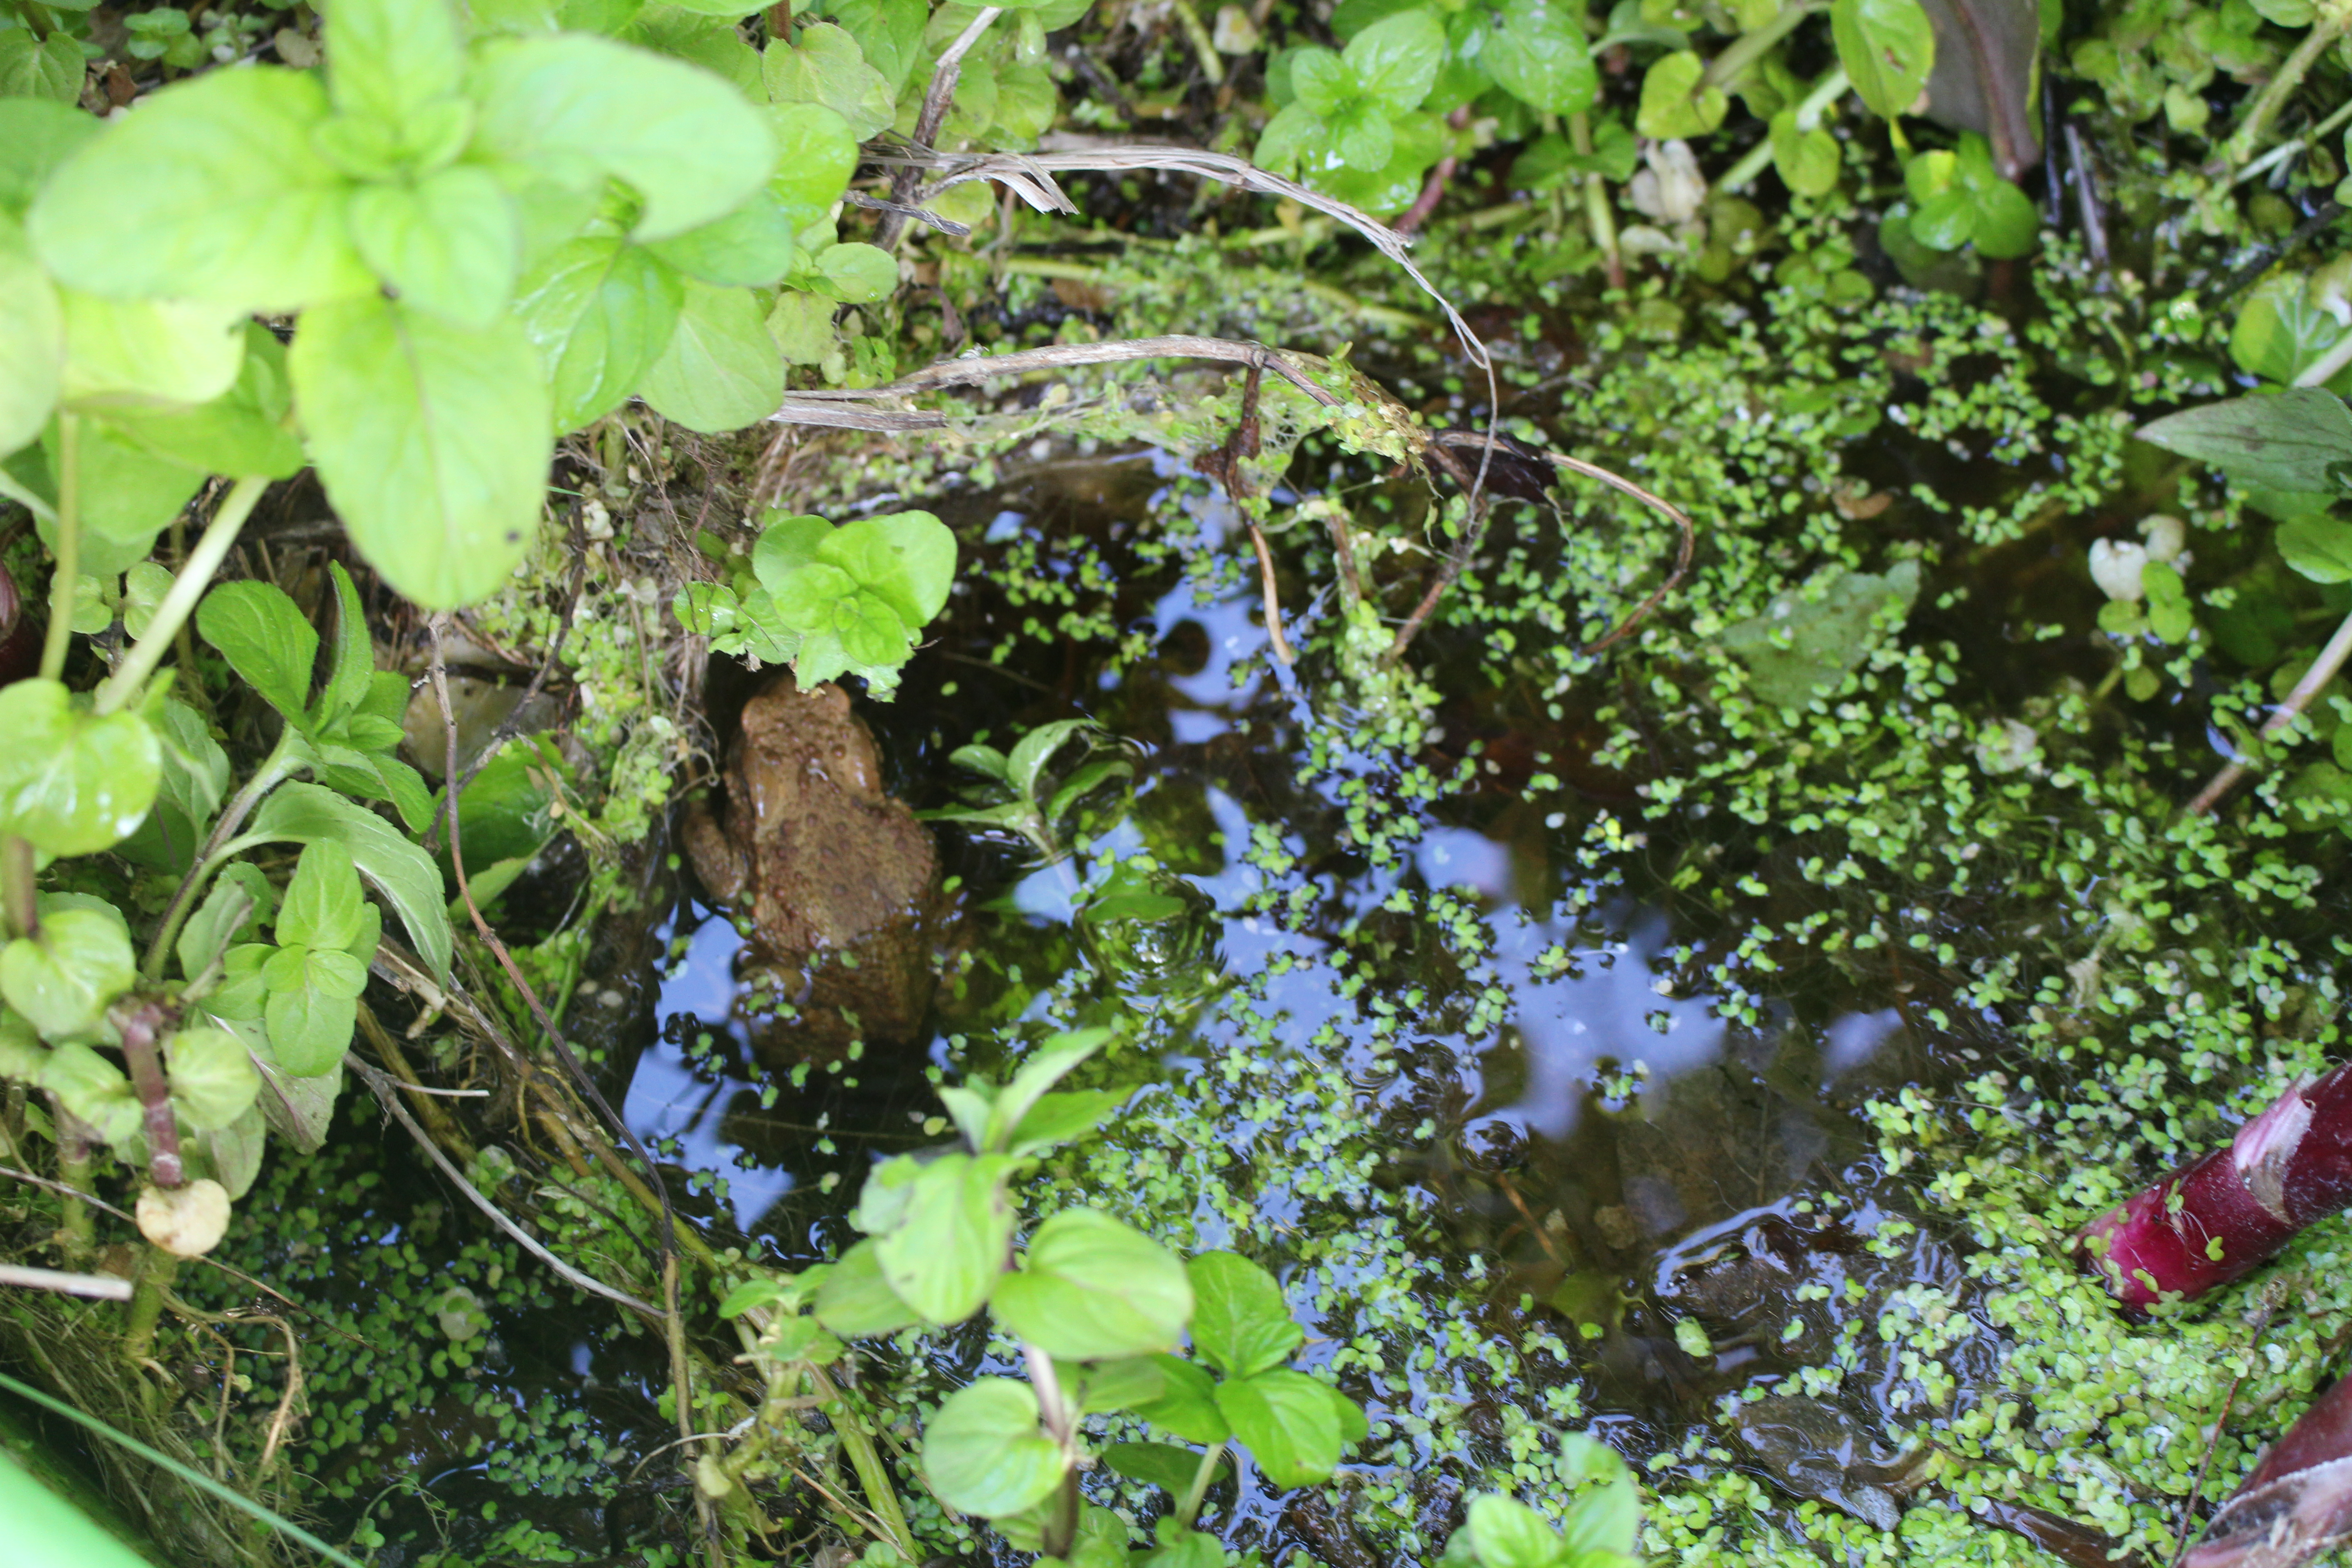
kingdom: Animalia
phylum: Chordata
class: Amphibia
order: Anura
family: Bufonidae
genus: Bufo
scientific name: Bufo bufo
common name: Skrubtudse
